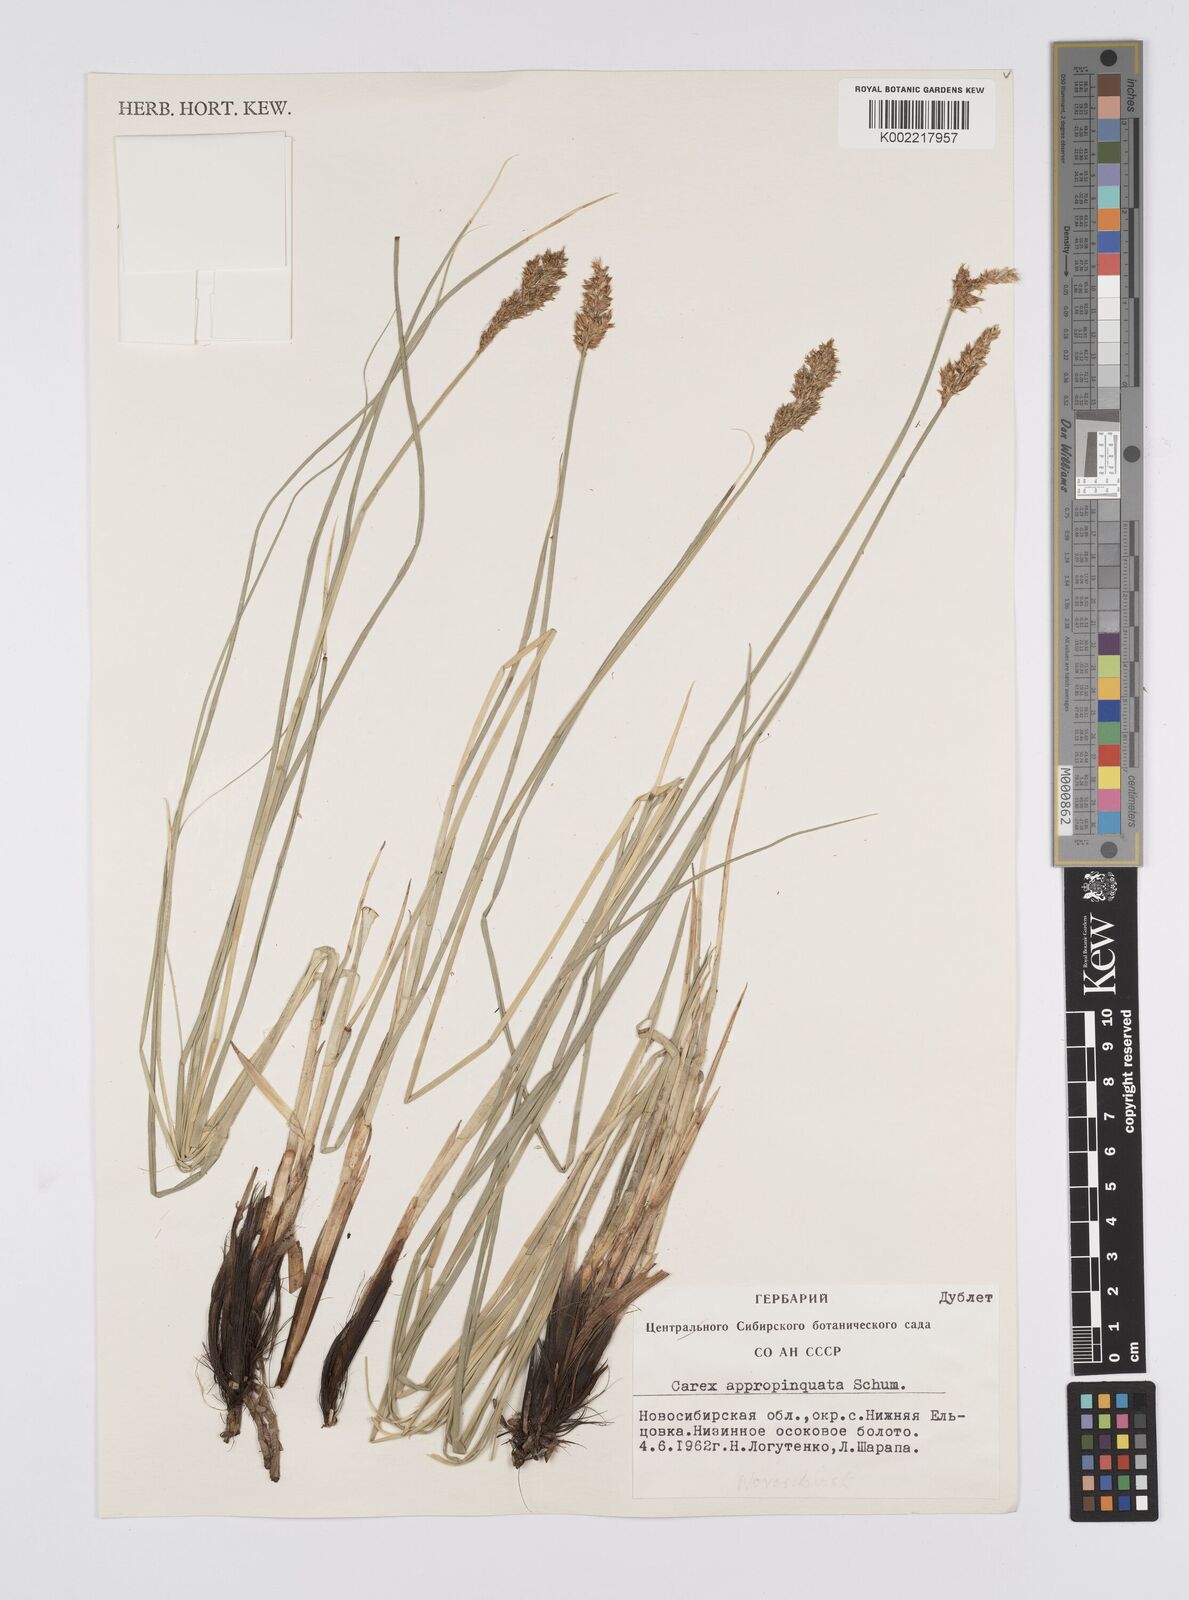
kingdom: Plantae
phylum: Tracheophyta
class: Liliopsida
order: Poales
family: Cyperaceae
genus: Carex
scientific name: Carex appropinquata
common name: Fibrous tussock-sedge
